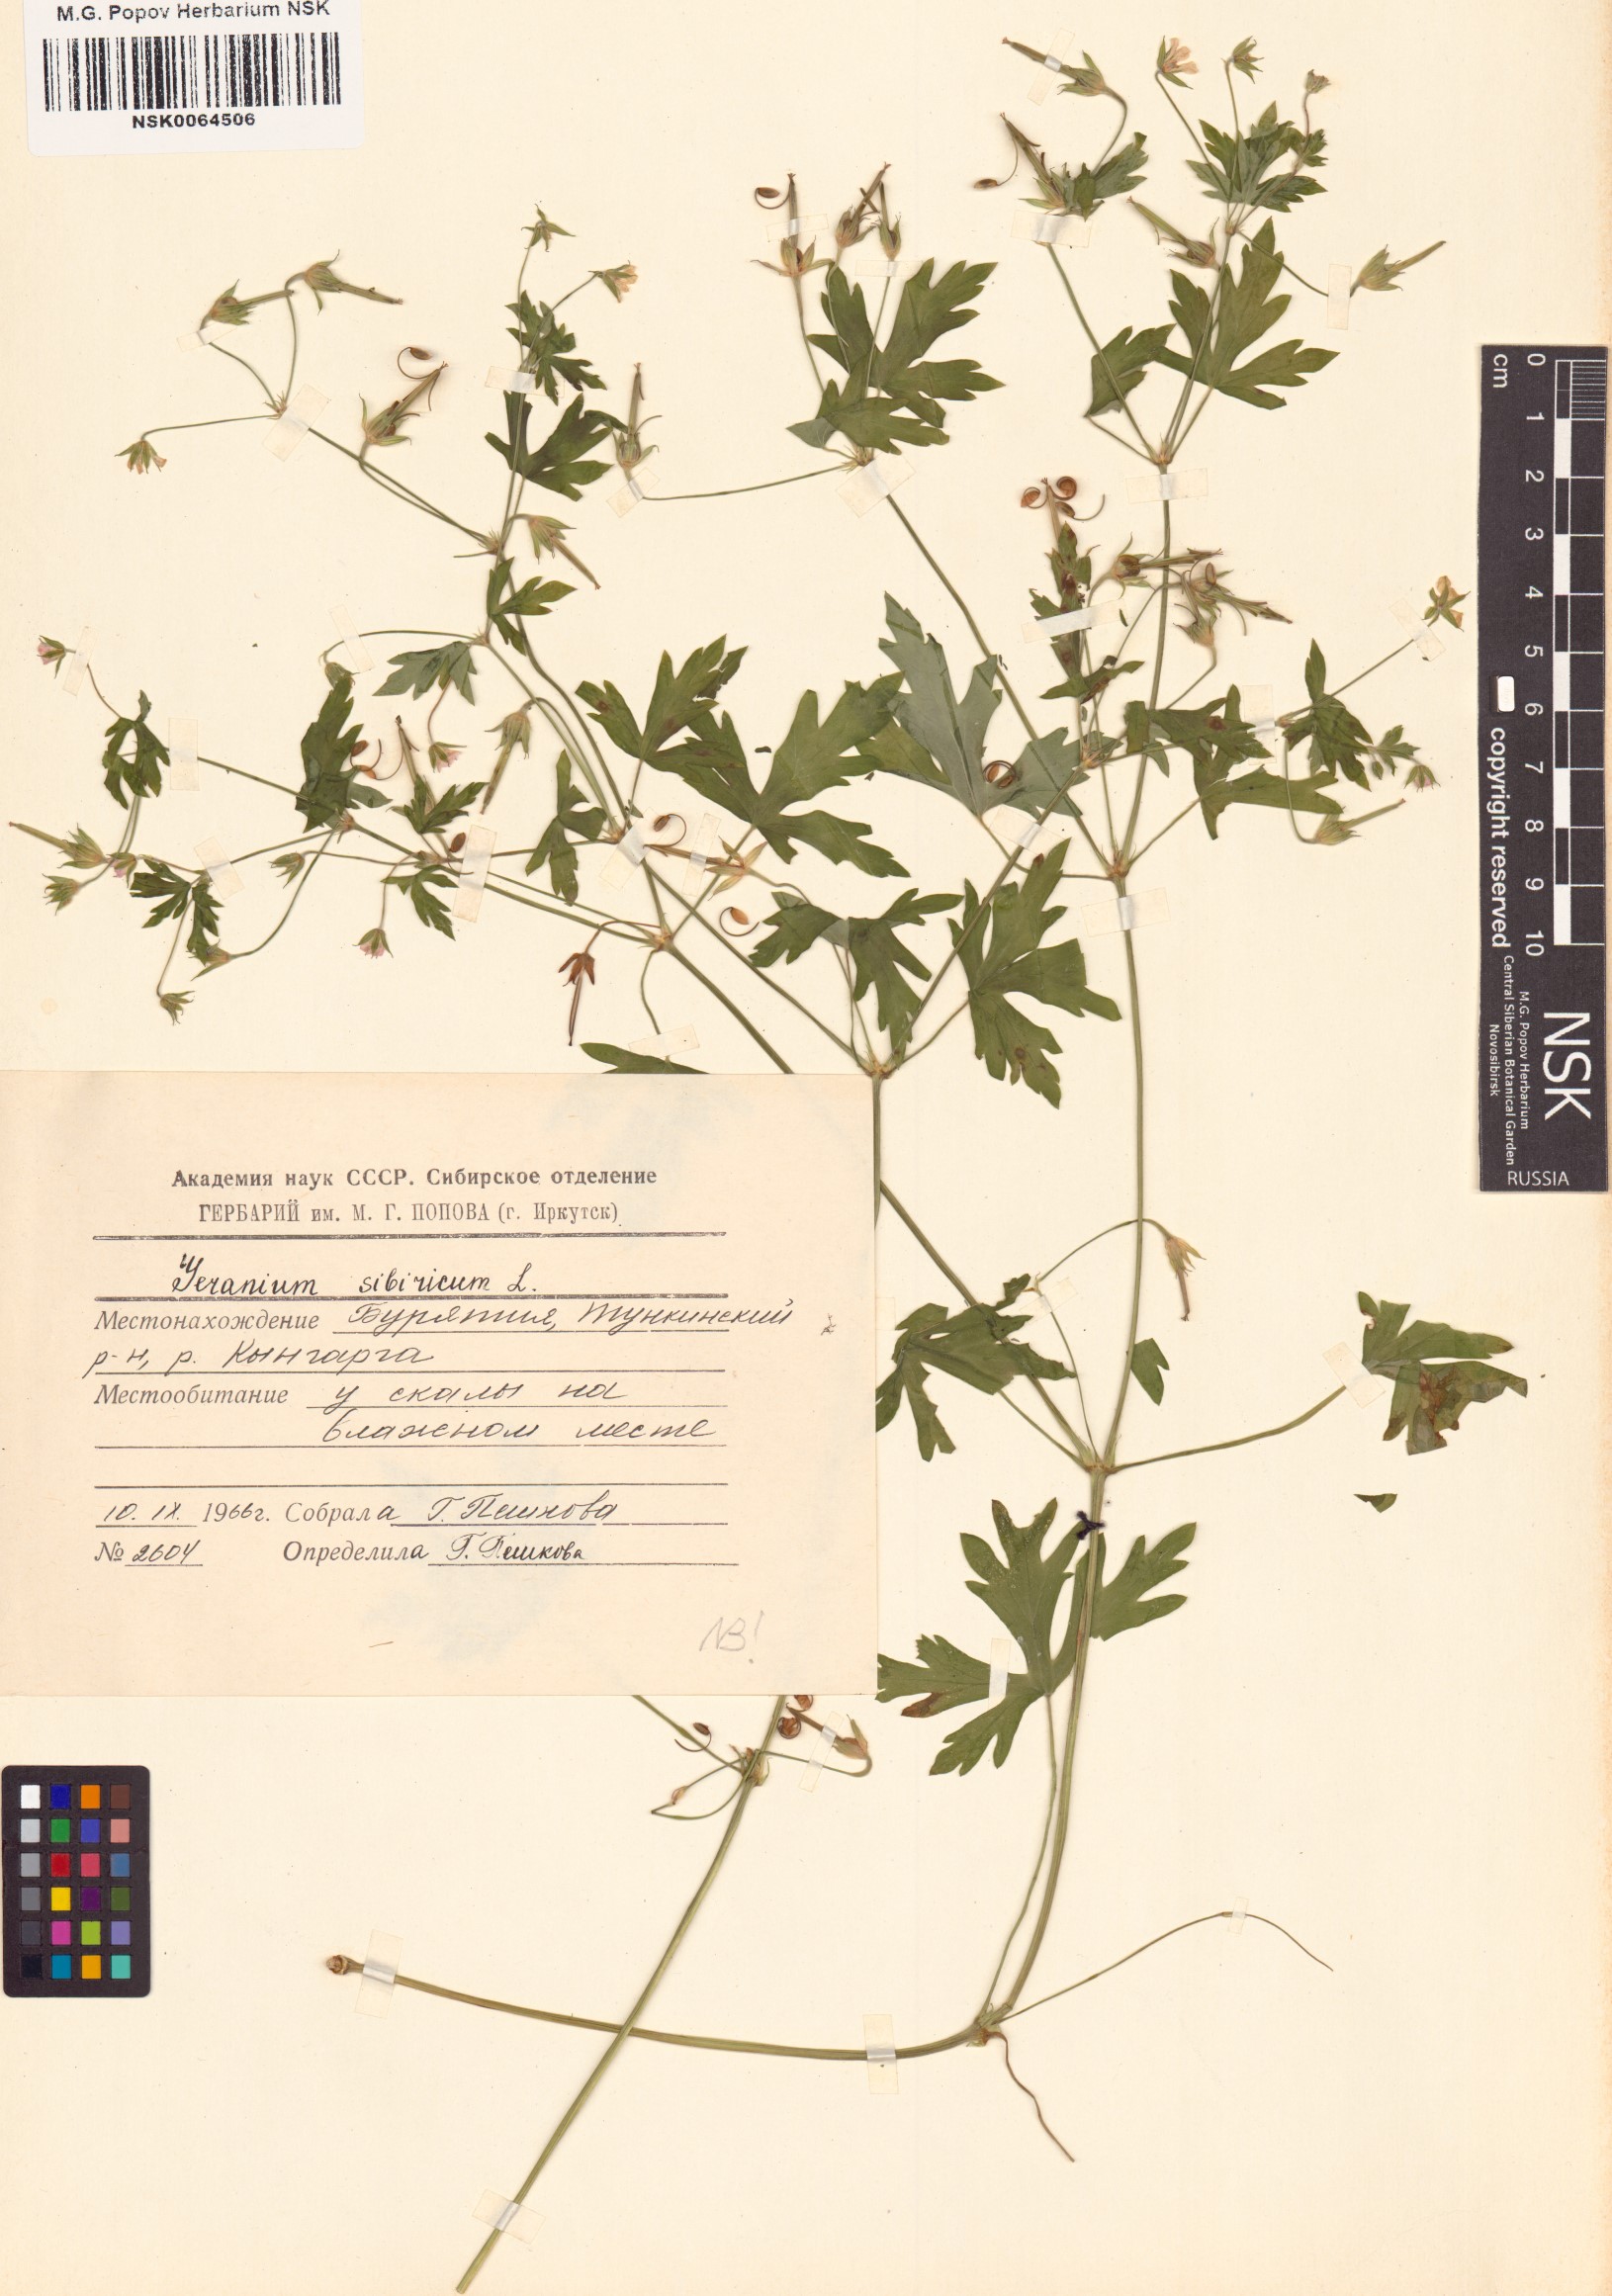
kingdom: Plantae
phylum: Tracheophyta
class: Magnoliopsida
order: Geraniales
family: Geraniaceae
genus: Geranium
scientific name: Geranium sibiricum
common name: Siberian crane's-bill
